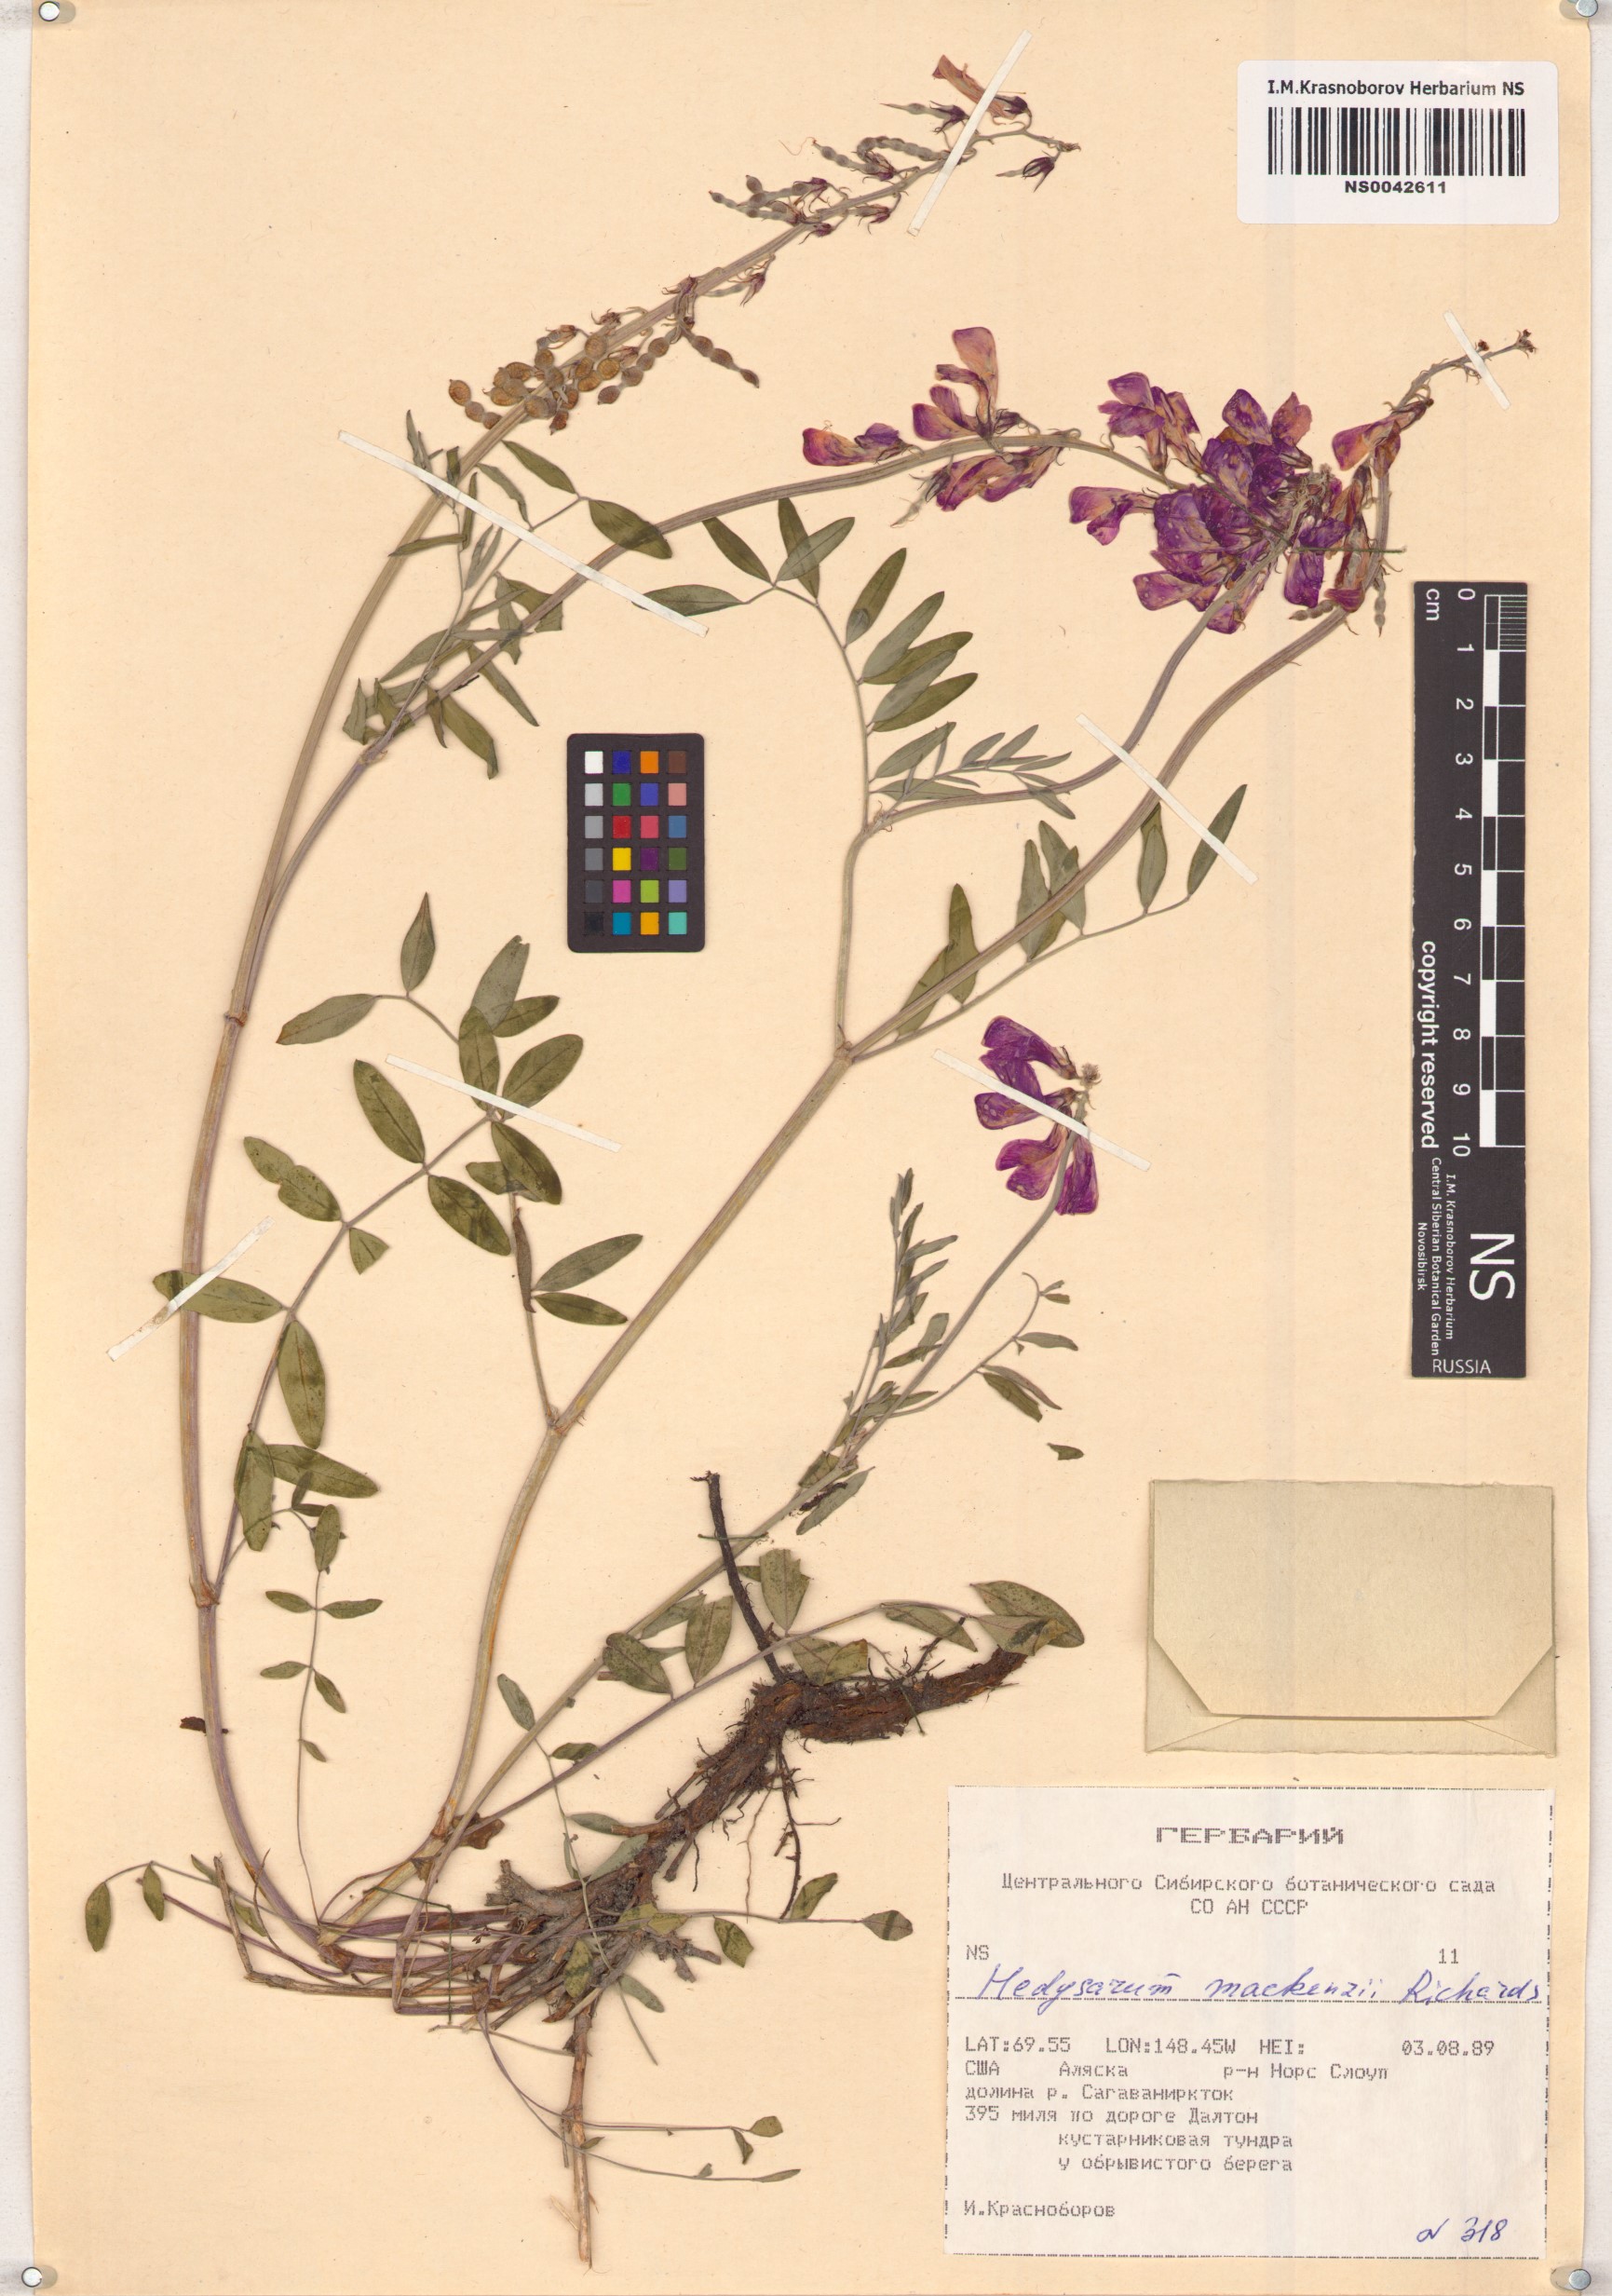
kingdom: Plantae
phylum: Tracheophyta
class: Magnoliopsida
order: Fabales
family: Fabaceae
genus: Hedysarum
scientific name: Hedysarum boreale
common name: Northern sweet-vetch
